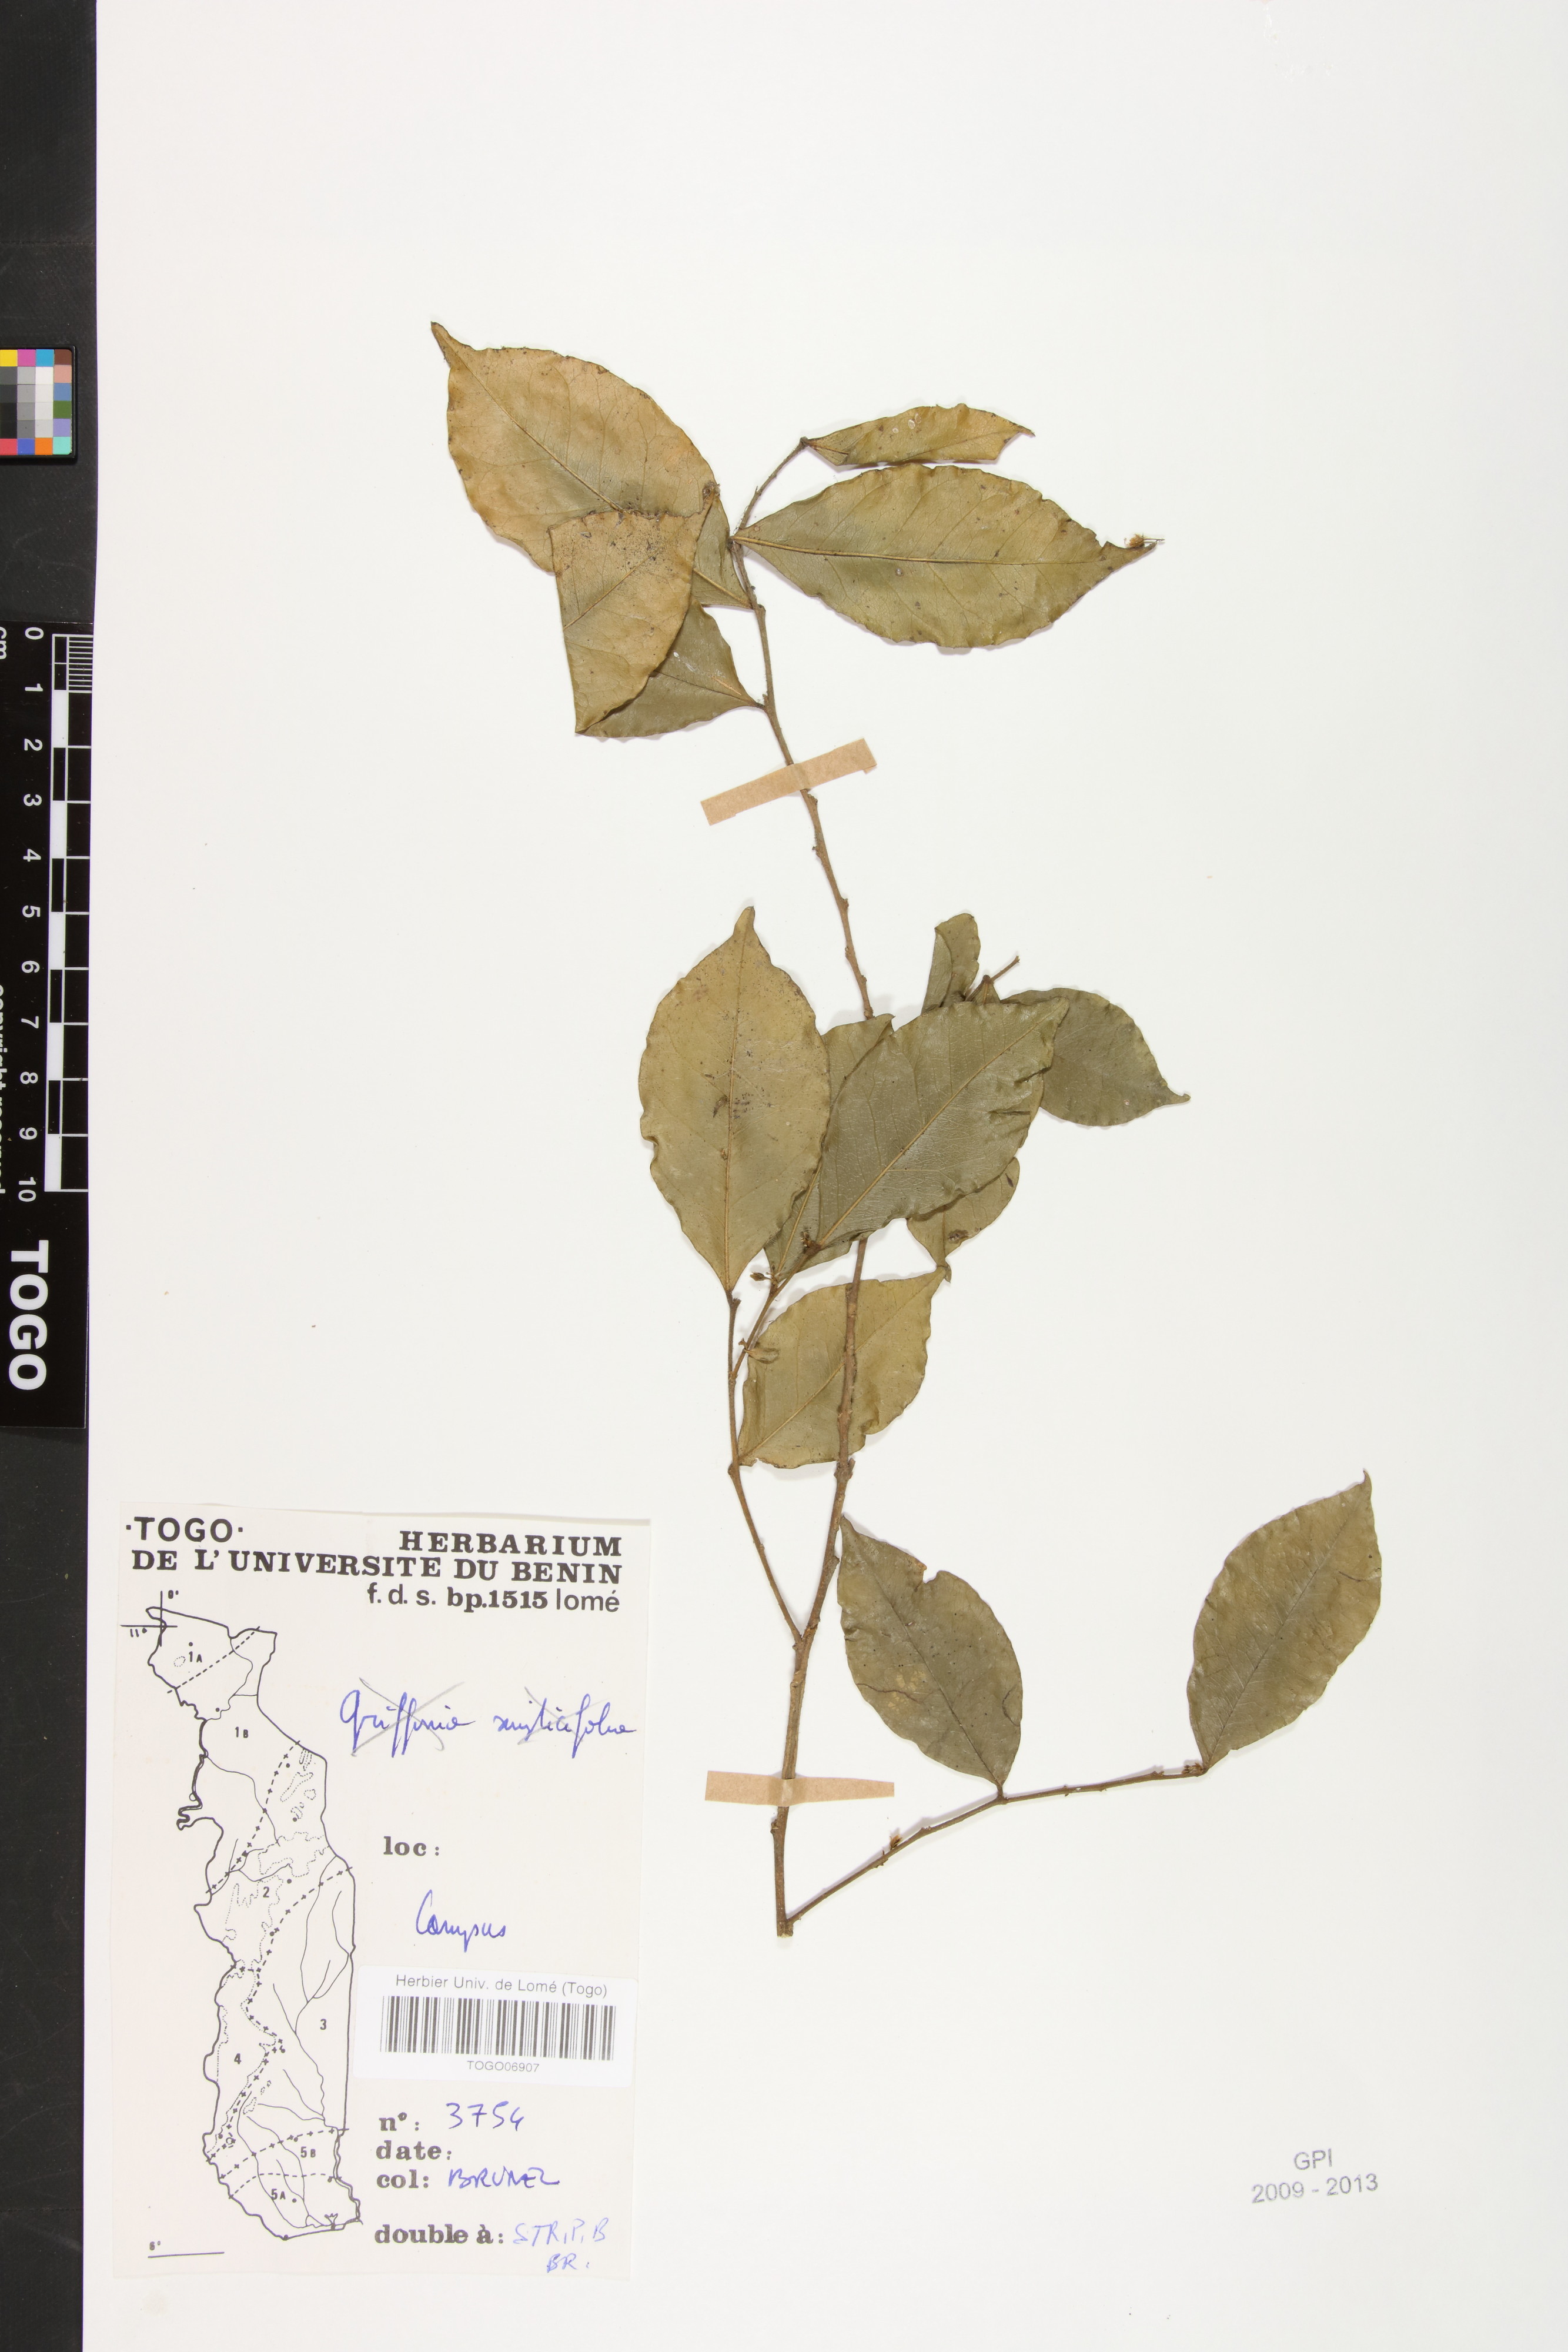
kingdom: Plantae
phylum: Tracheophyta
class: Magnoliopsida
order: Fabales
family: Polygalaceae
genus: Carpolobia
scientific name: Carpolobia lutea
